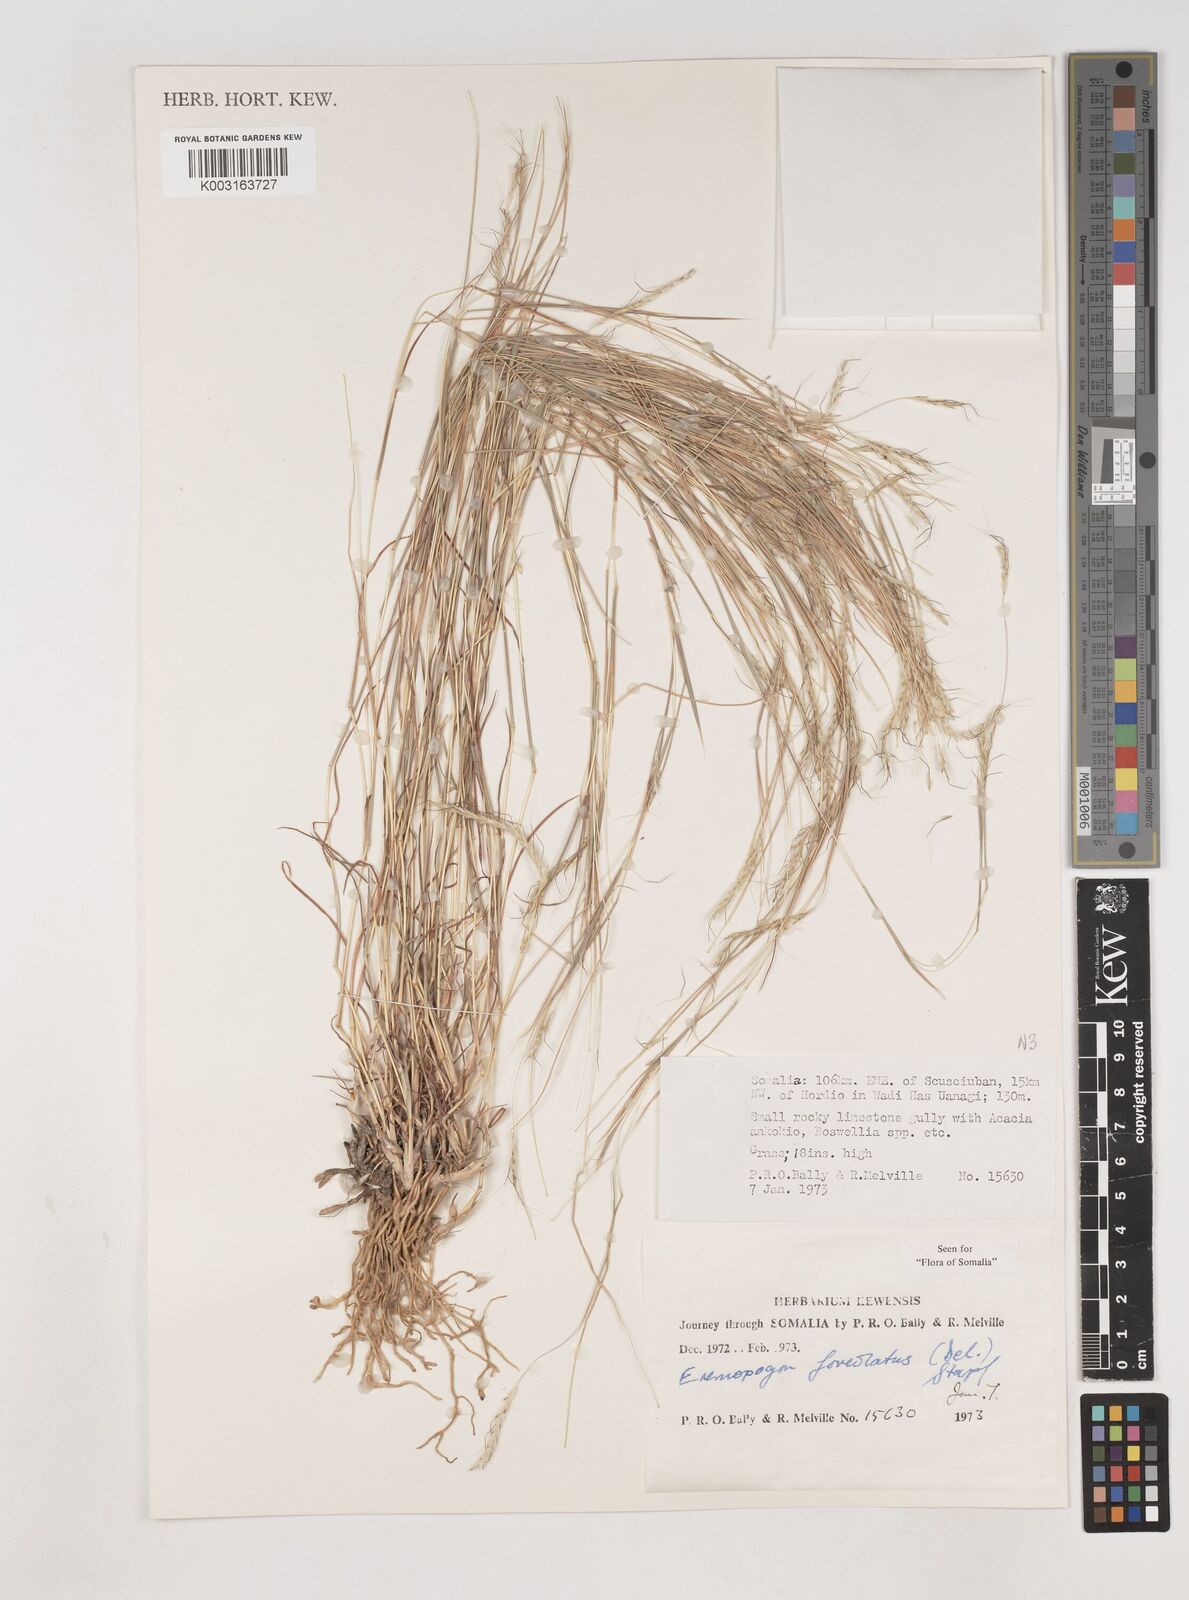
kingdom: Plantae
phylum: Tracheophyta
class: Liliopsida
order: Poales
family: Poaceae
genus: Dichanthium
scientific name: Dichanthium foveolatum
